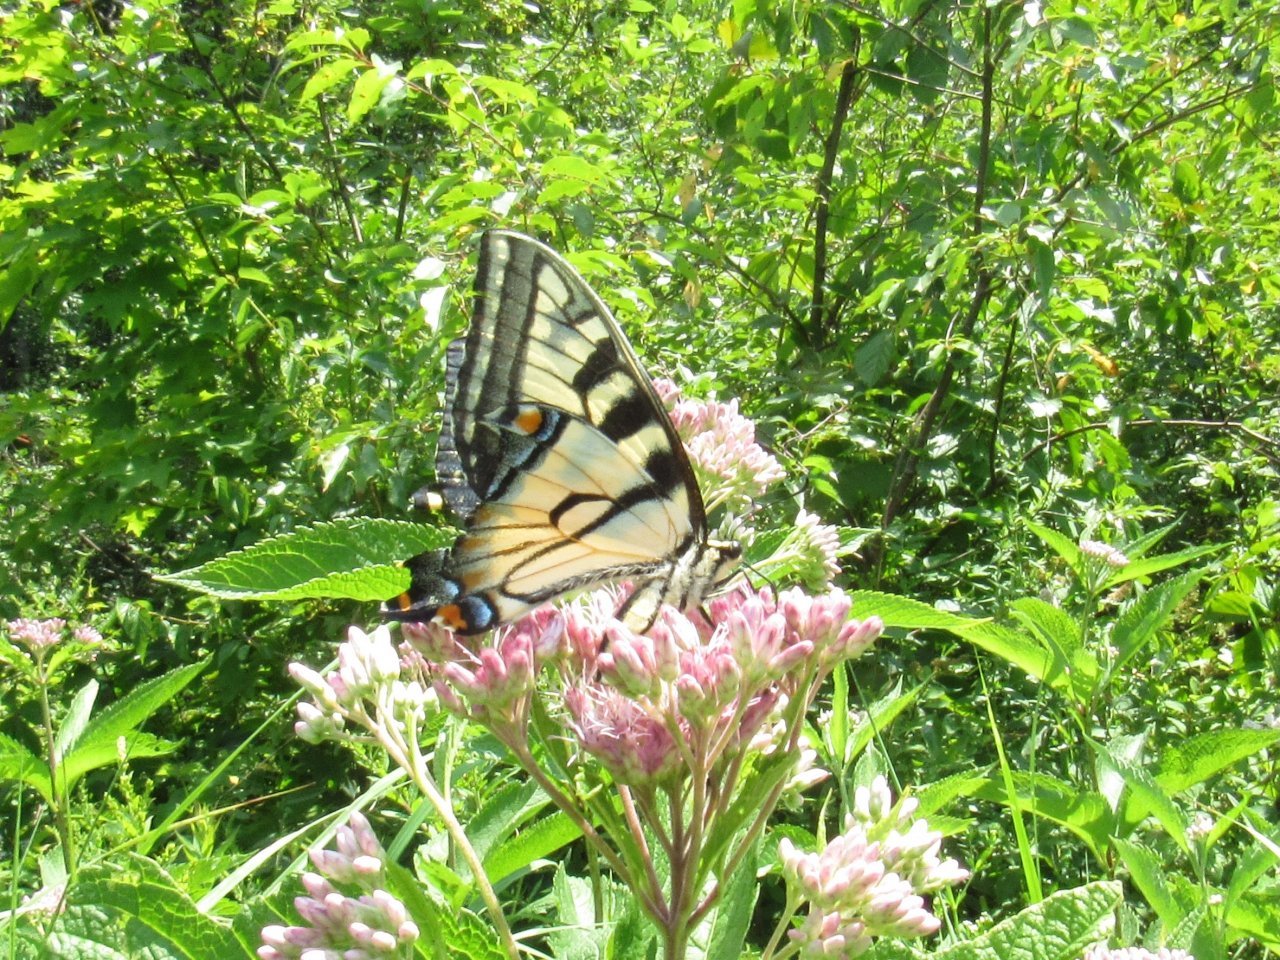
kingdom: Animalia
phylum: Arthropoda
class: Insecta
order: Lepidoptera
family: Papilionidae
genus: Pterourus
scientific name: Pterourus
